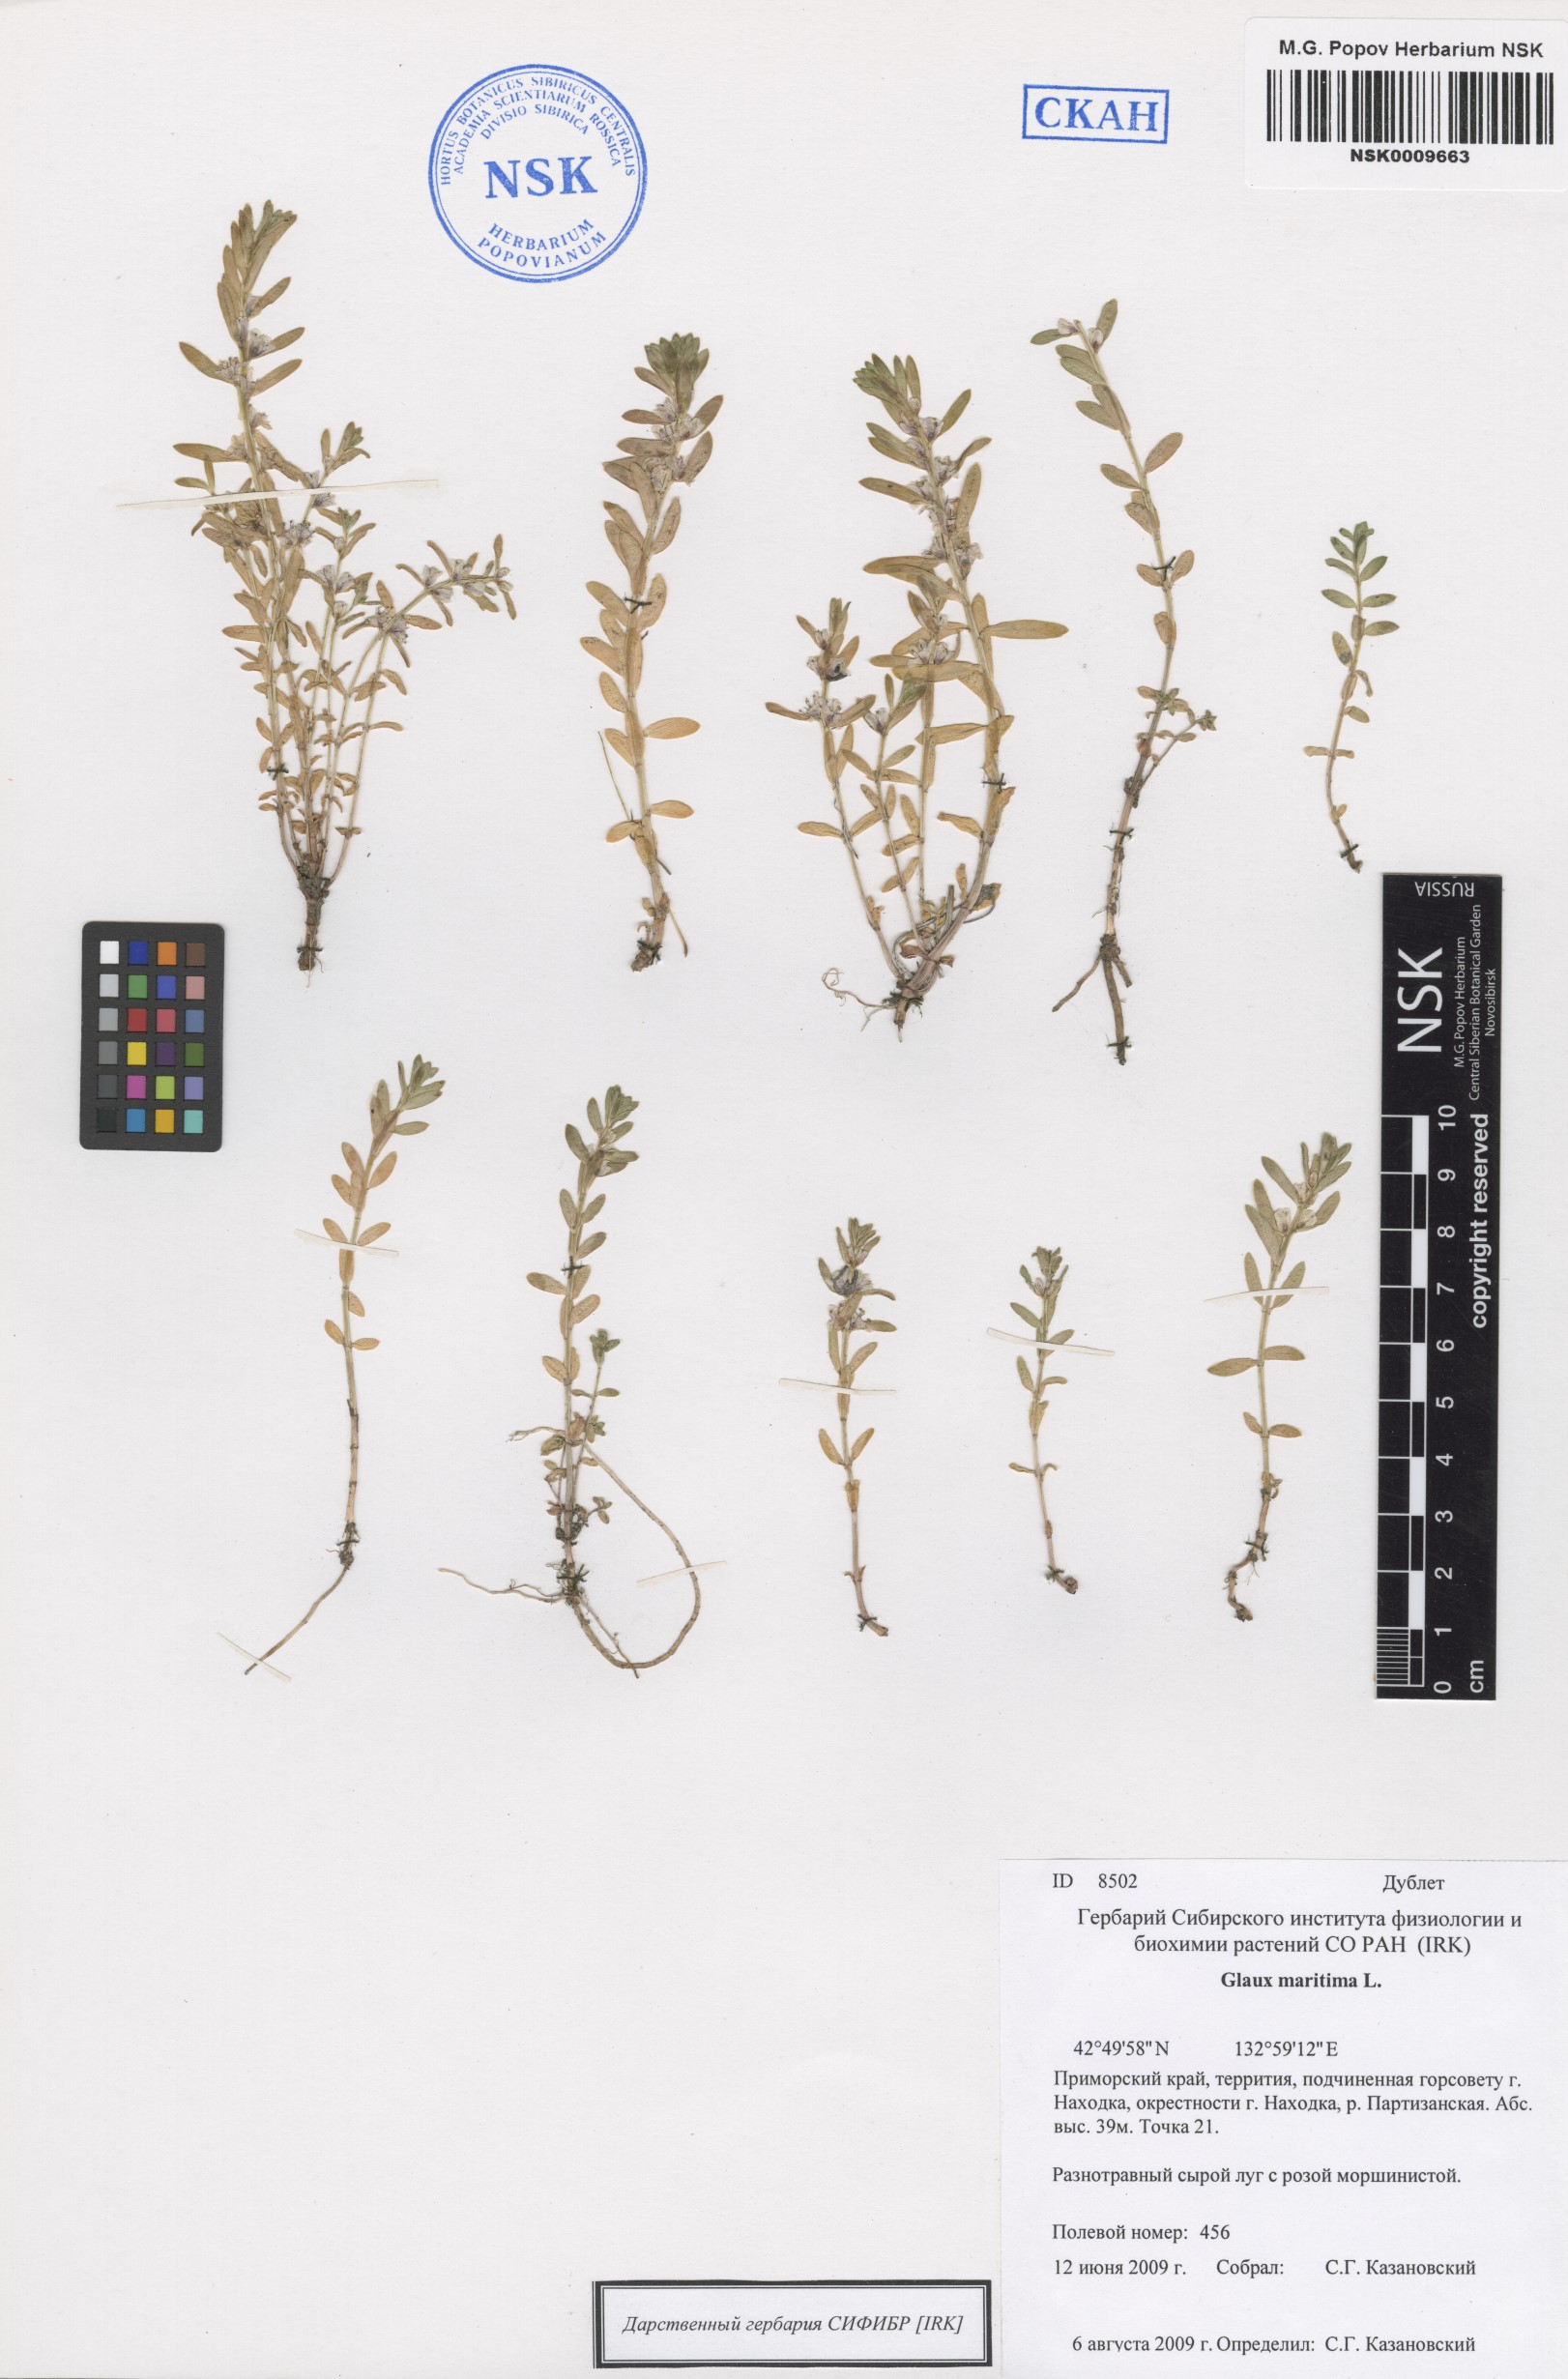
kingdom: Plantae
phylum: Tracheophyta
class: Magnoliopsida
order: Ericales
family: Primulaceae
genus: Lysimachia
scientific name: Lysimachia maritima
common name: Sea milkwort
